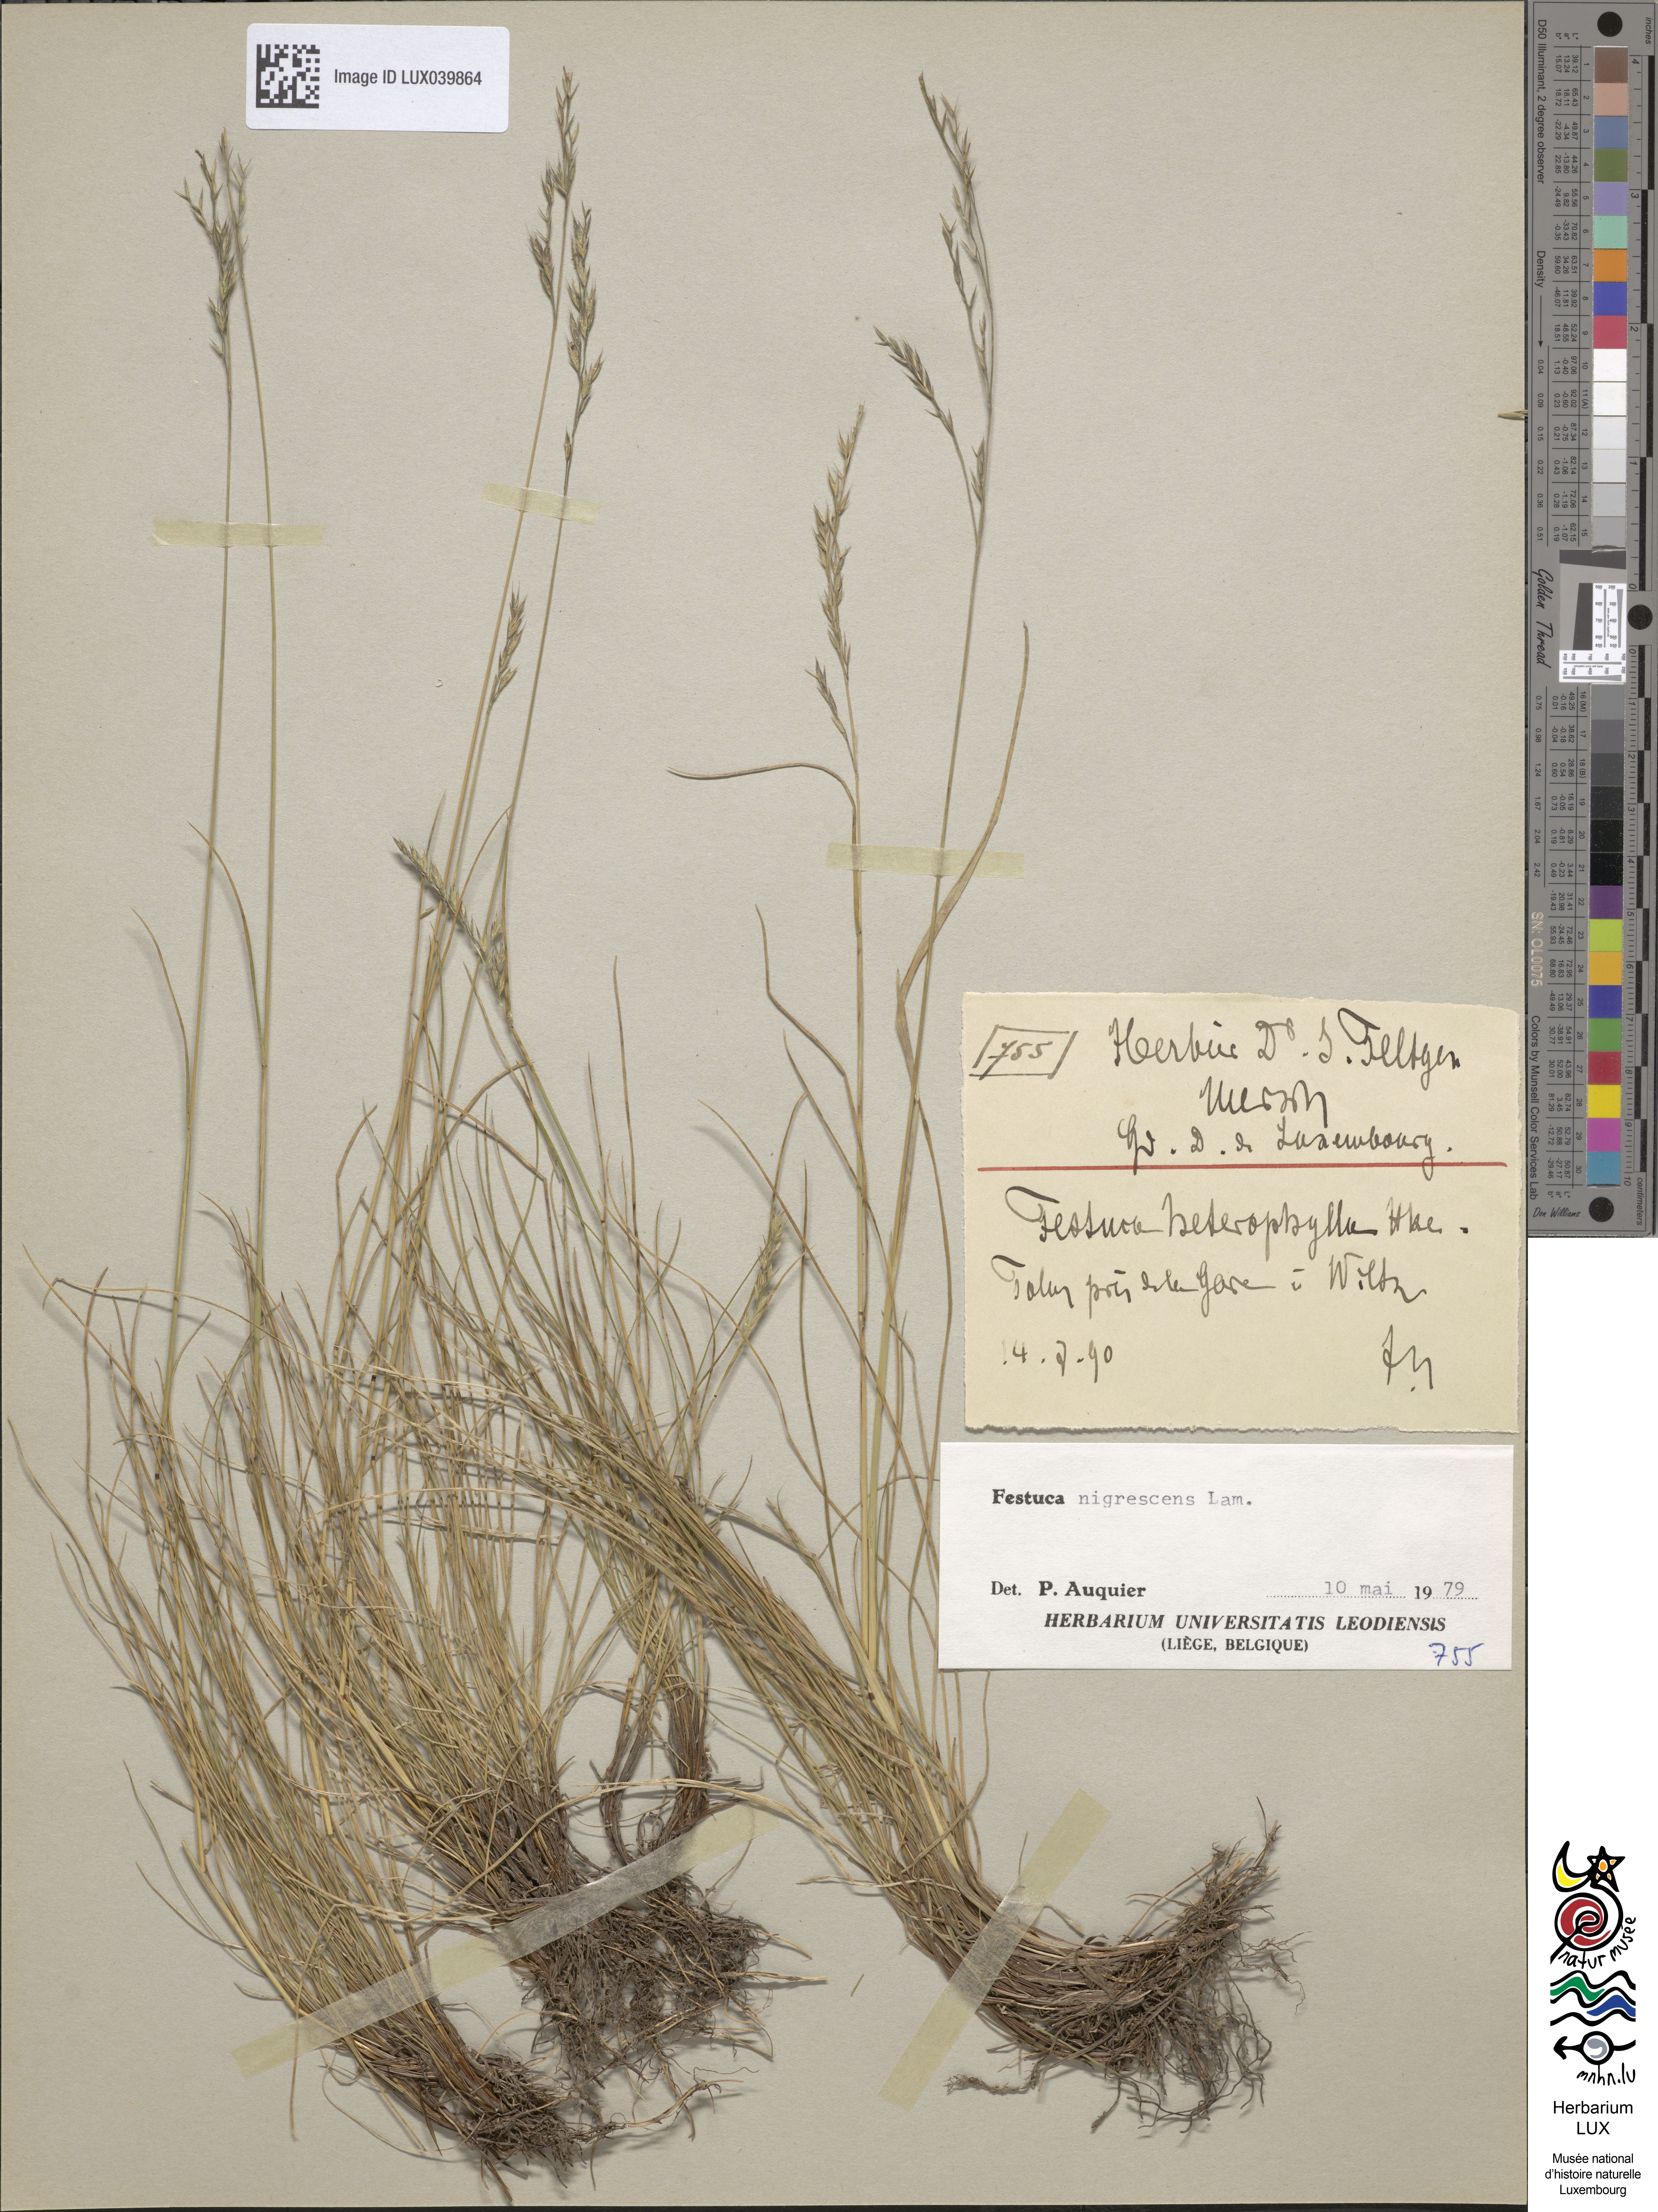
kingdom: Plantae
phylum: Tracheophyta
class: Liliopsida
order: Poales
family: Poaceae
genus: Festuca
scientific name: Festuca heterophylla
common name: Various-leaved fescue
